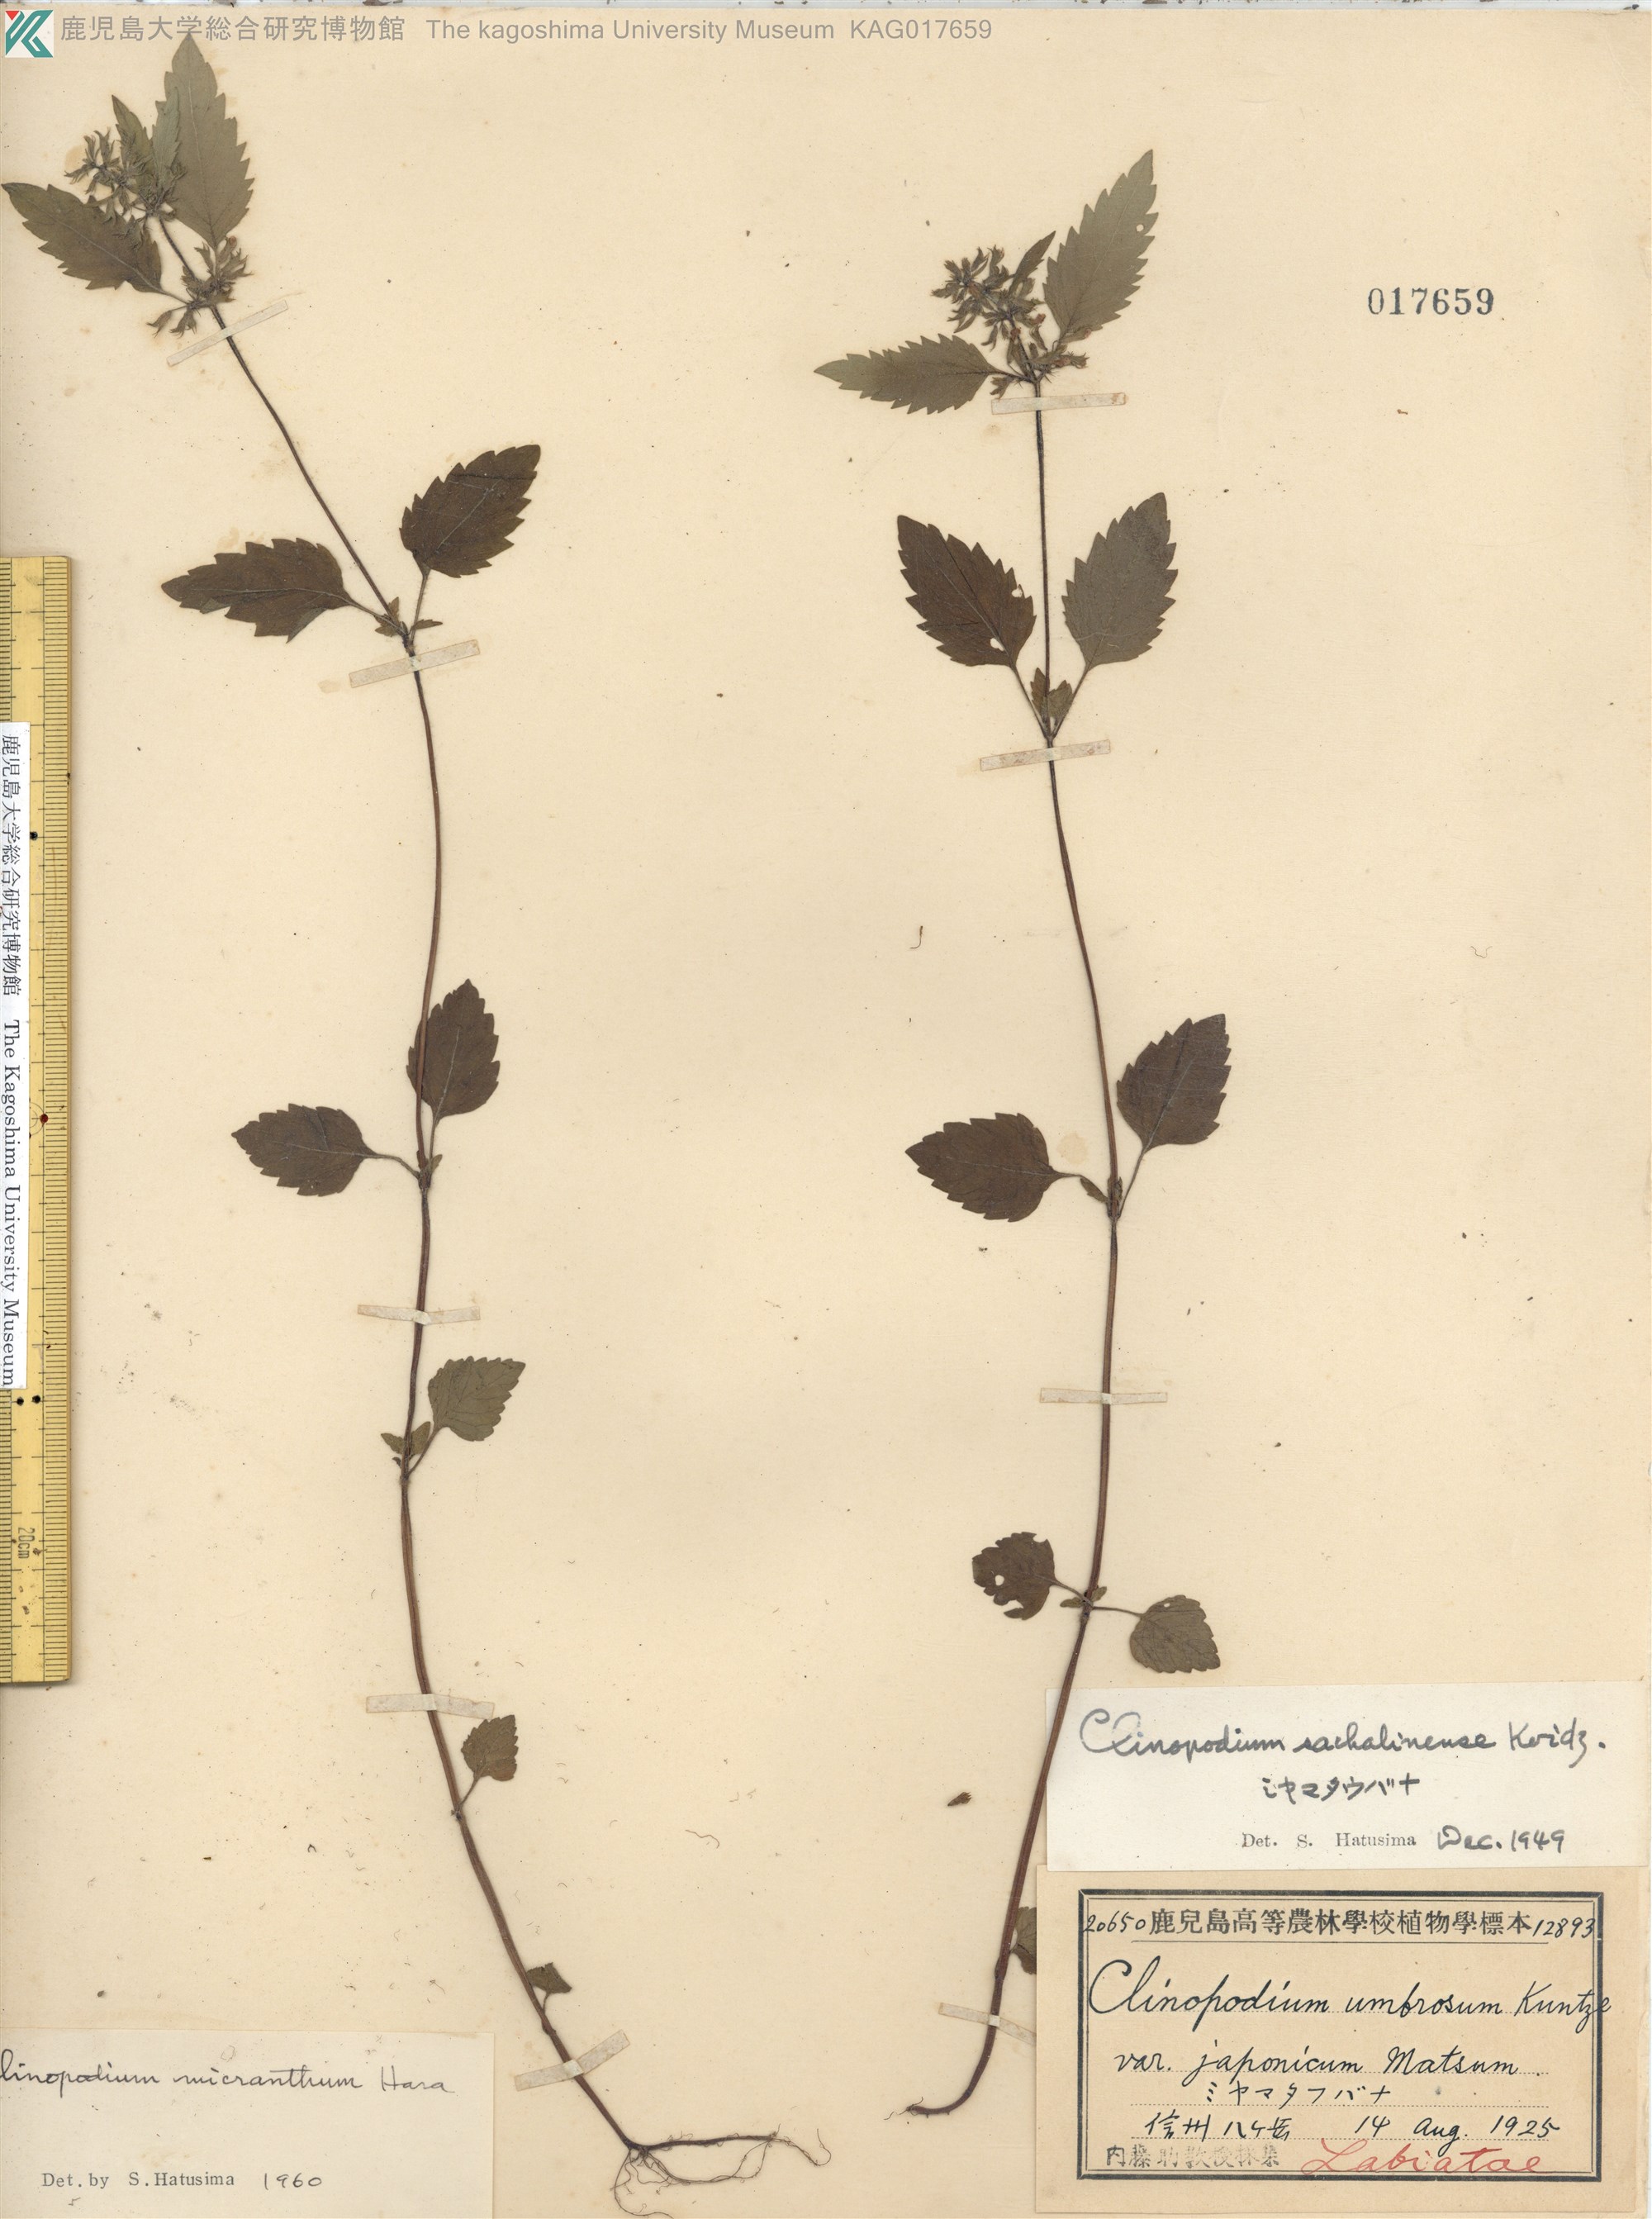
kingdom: Plantae
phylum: Tracheophyta
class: Magnoliopsida
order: Lamiales
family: Lamiaceae
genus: Clinopodium
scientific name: Clinopodium micranthum
